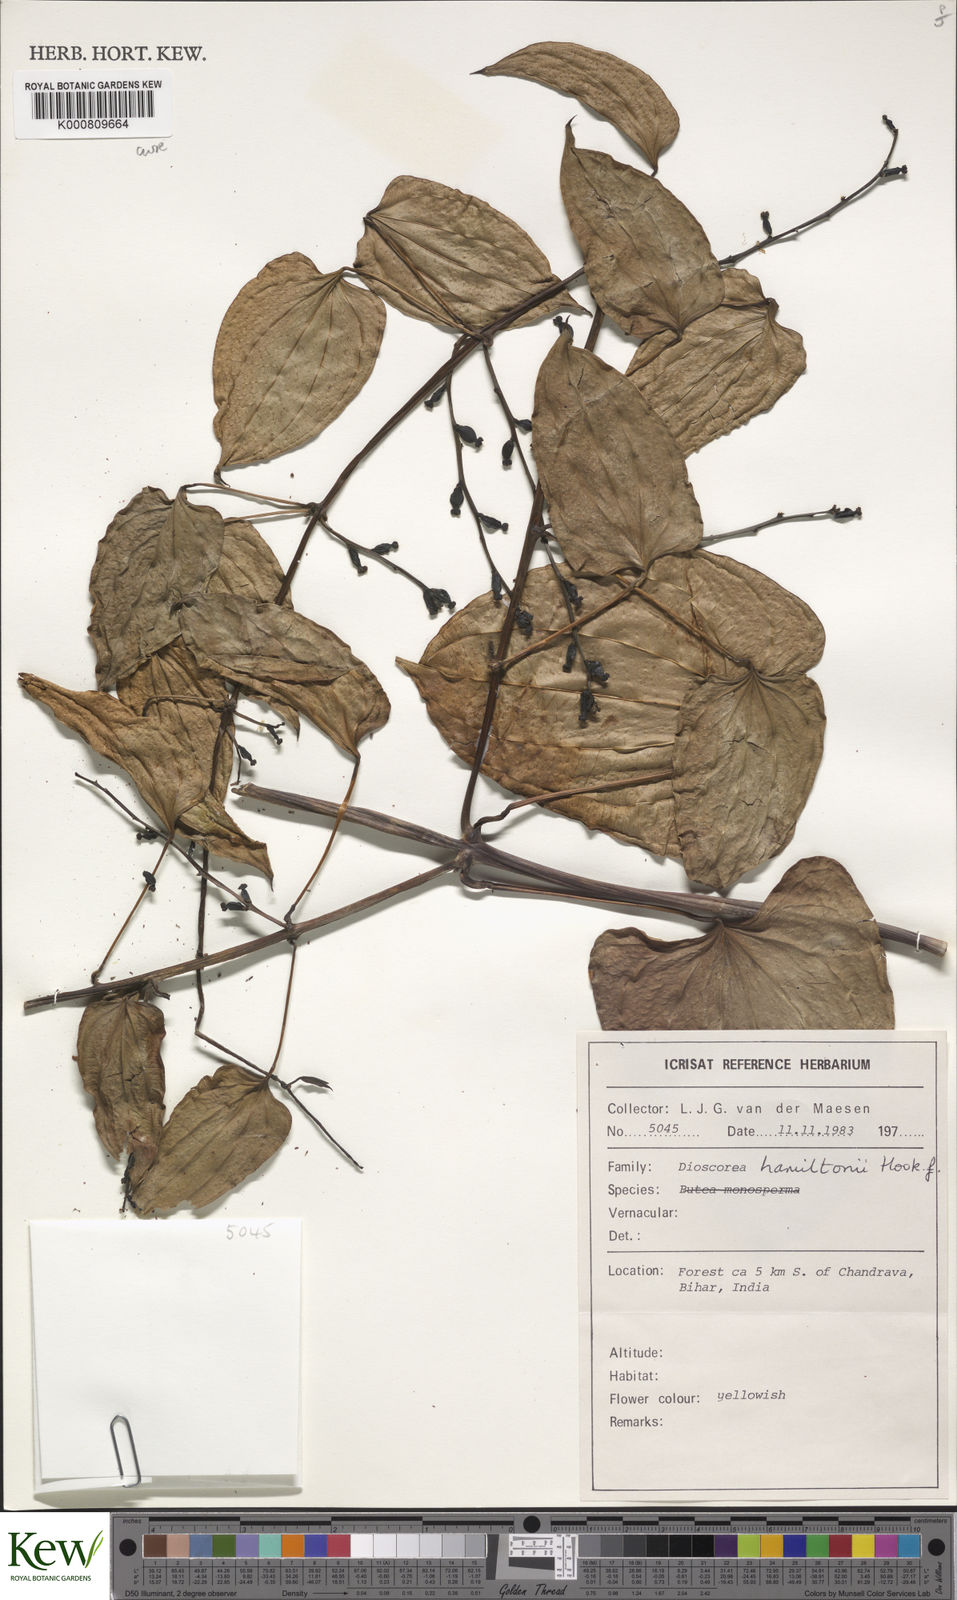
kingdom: Plantae
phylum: Tracheophyta
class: Liliopsida
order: Dioscoreales
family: Dioscoreaceae
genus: Dioscorea
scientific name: Dioscorea hamiltonii
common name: Mountain yam
